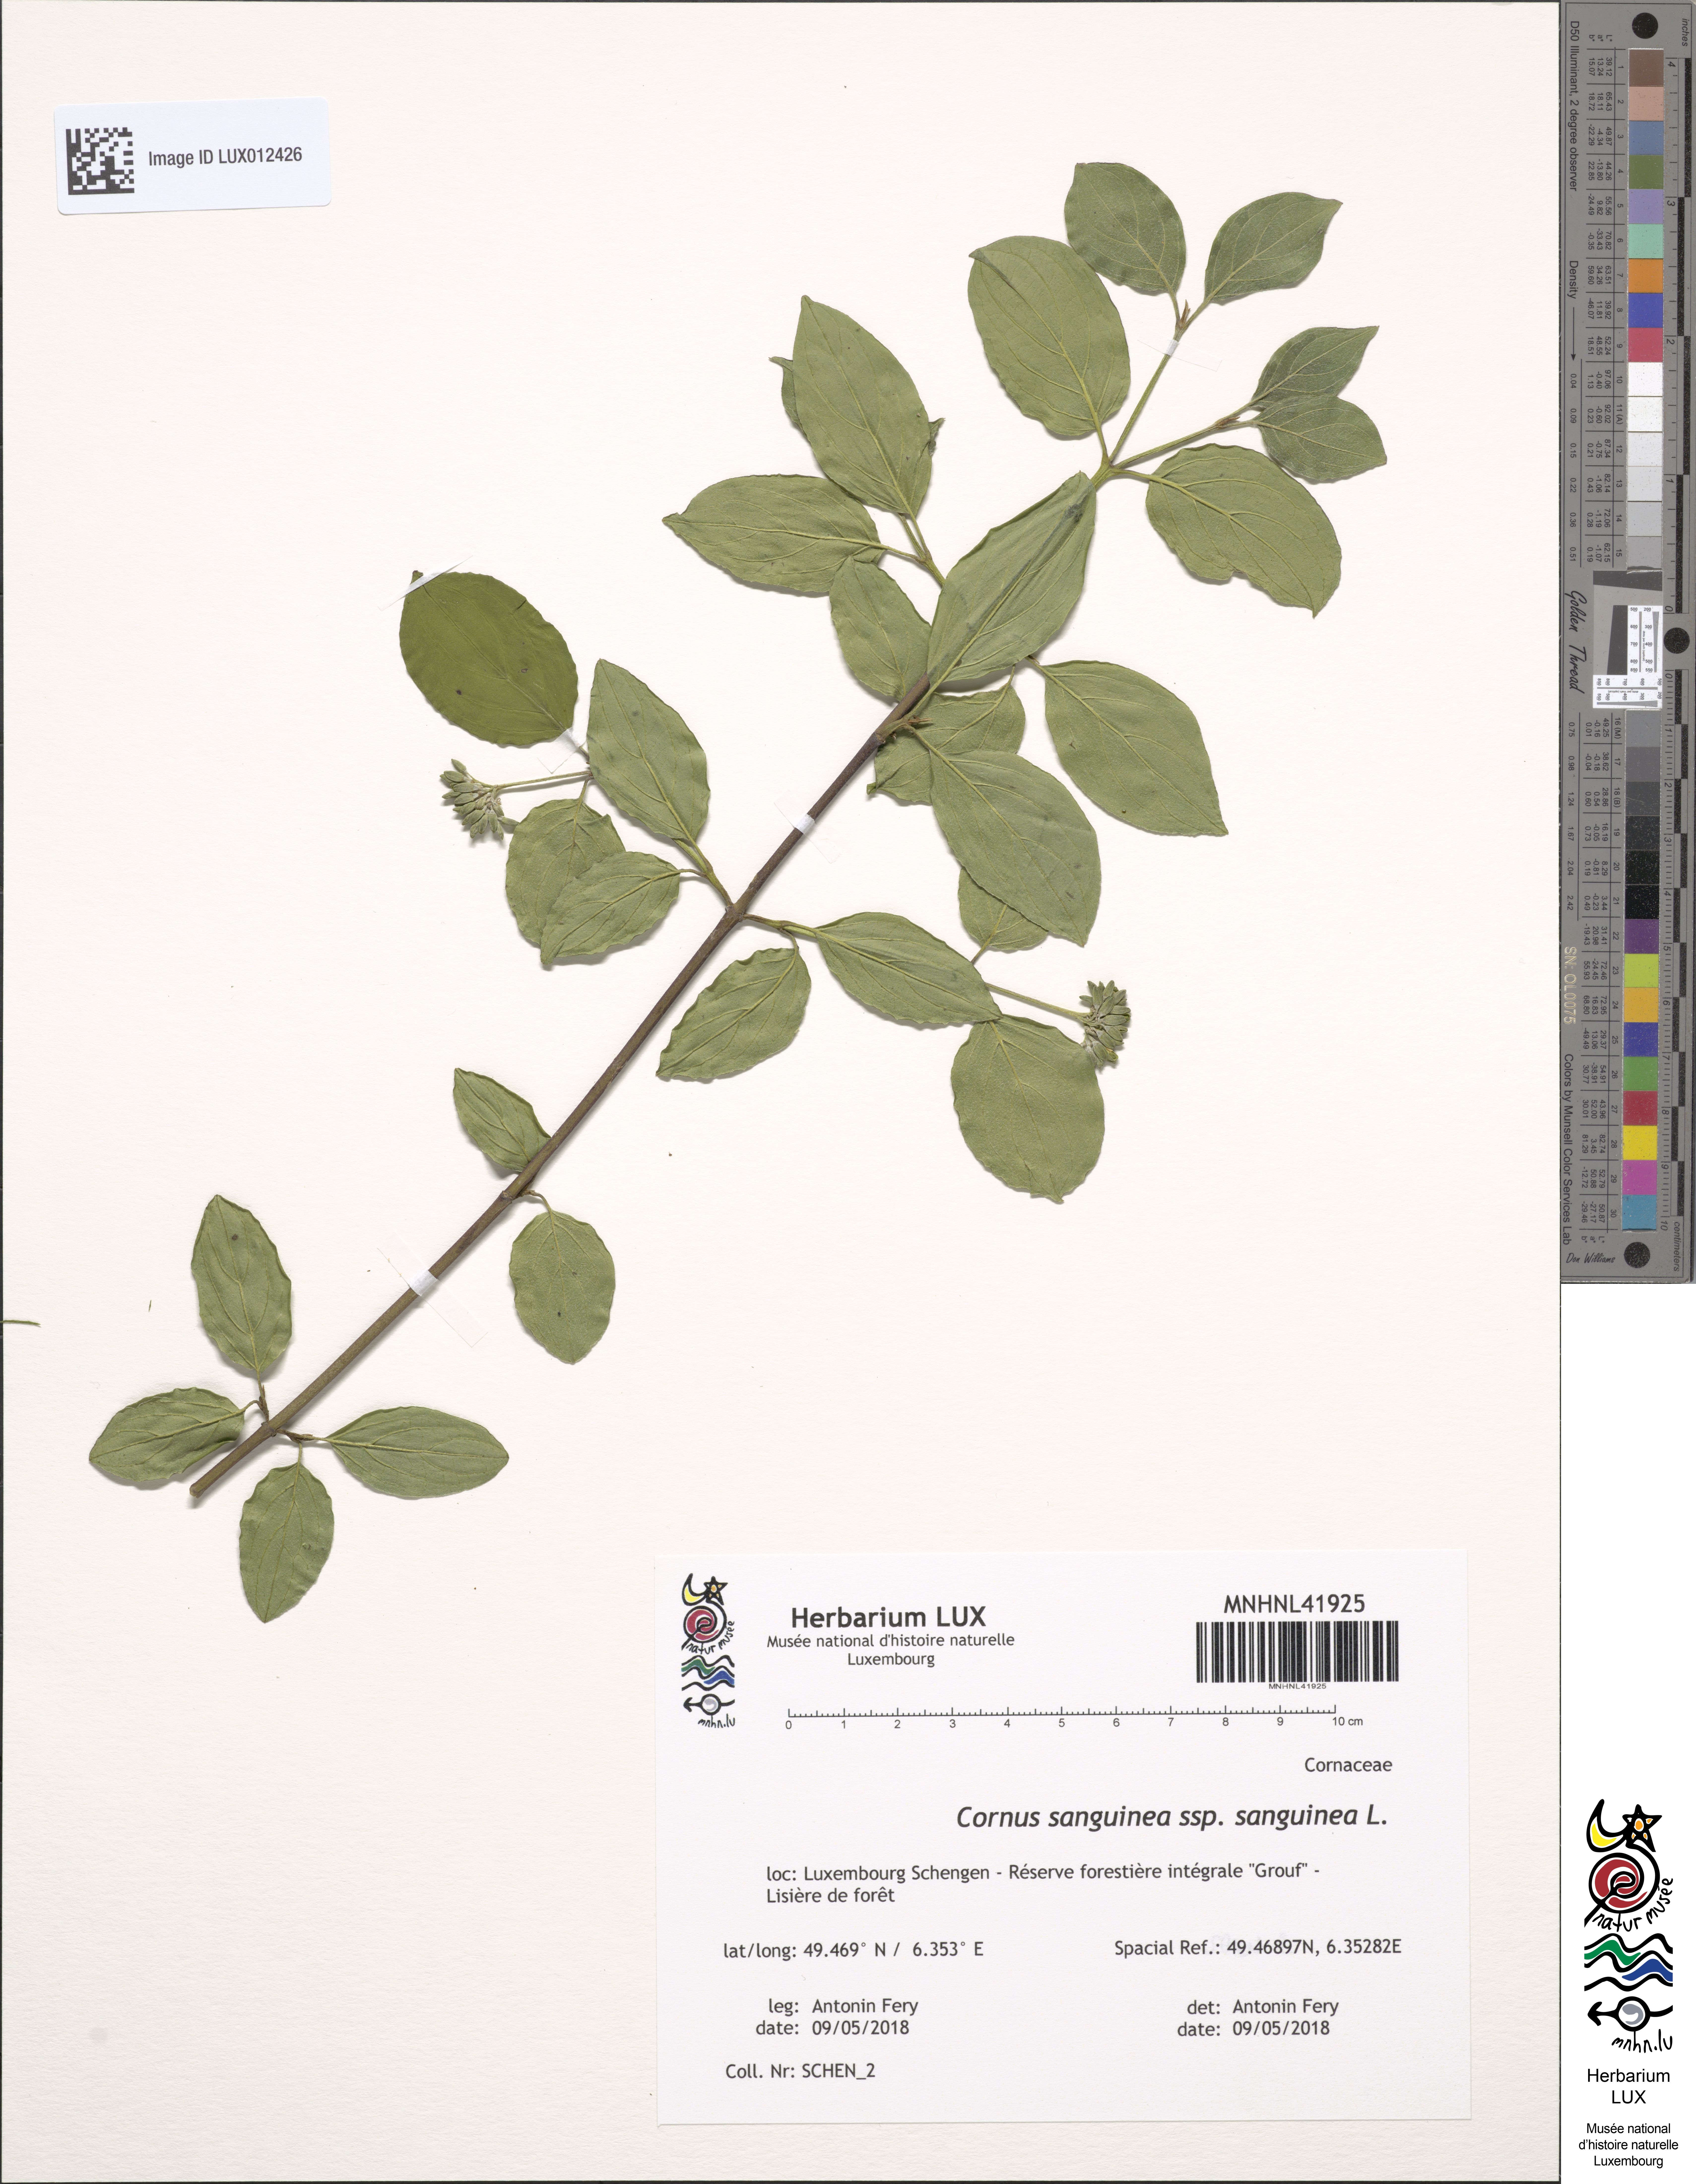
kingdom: Plantae
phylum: Tracheophyta
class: Magnoliopsida
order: Cornales
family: Cornaceae
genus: Cornus
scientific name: Cornus sanguinea
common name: Dogwood
